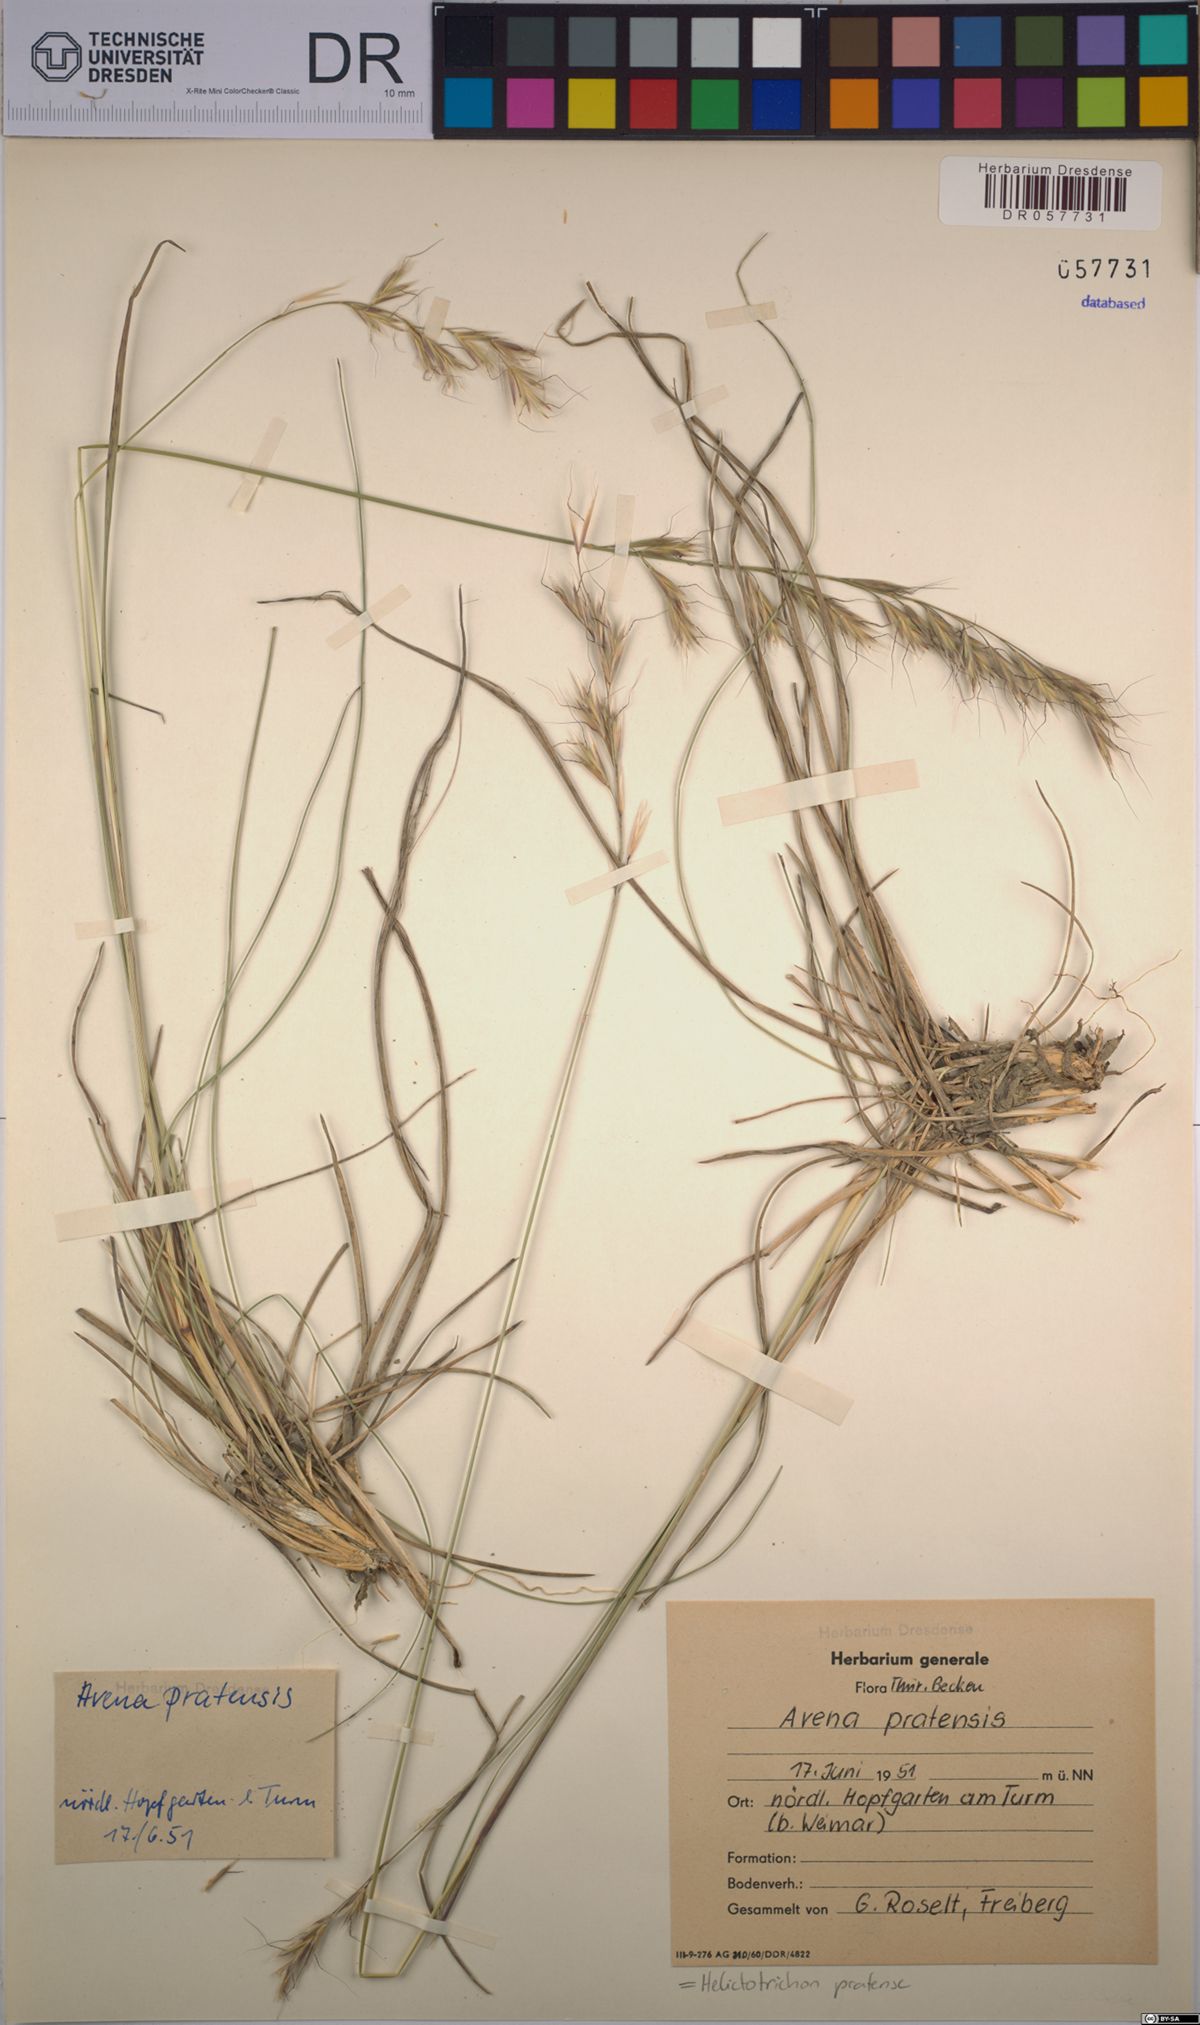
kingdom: Plantae
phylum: Tracheophyta
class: Liliopsida
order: Poales
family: Poaceae
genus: Helictochloa
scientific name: Helictochloa pratensis
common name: Meadow oat grass
